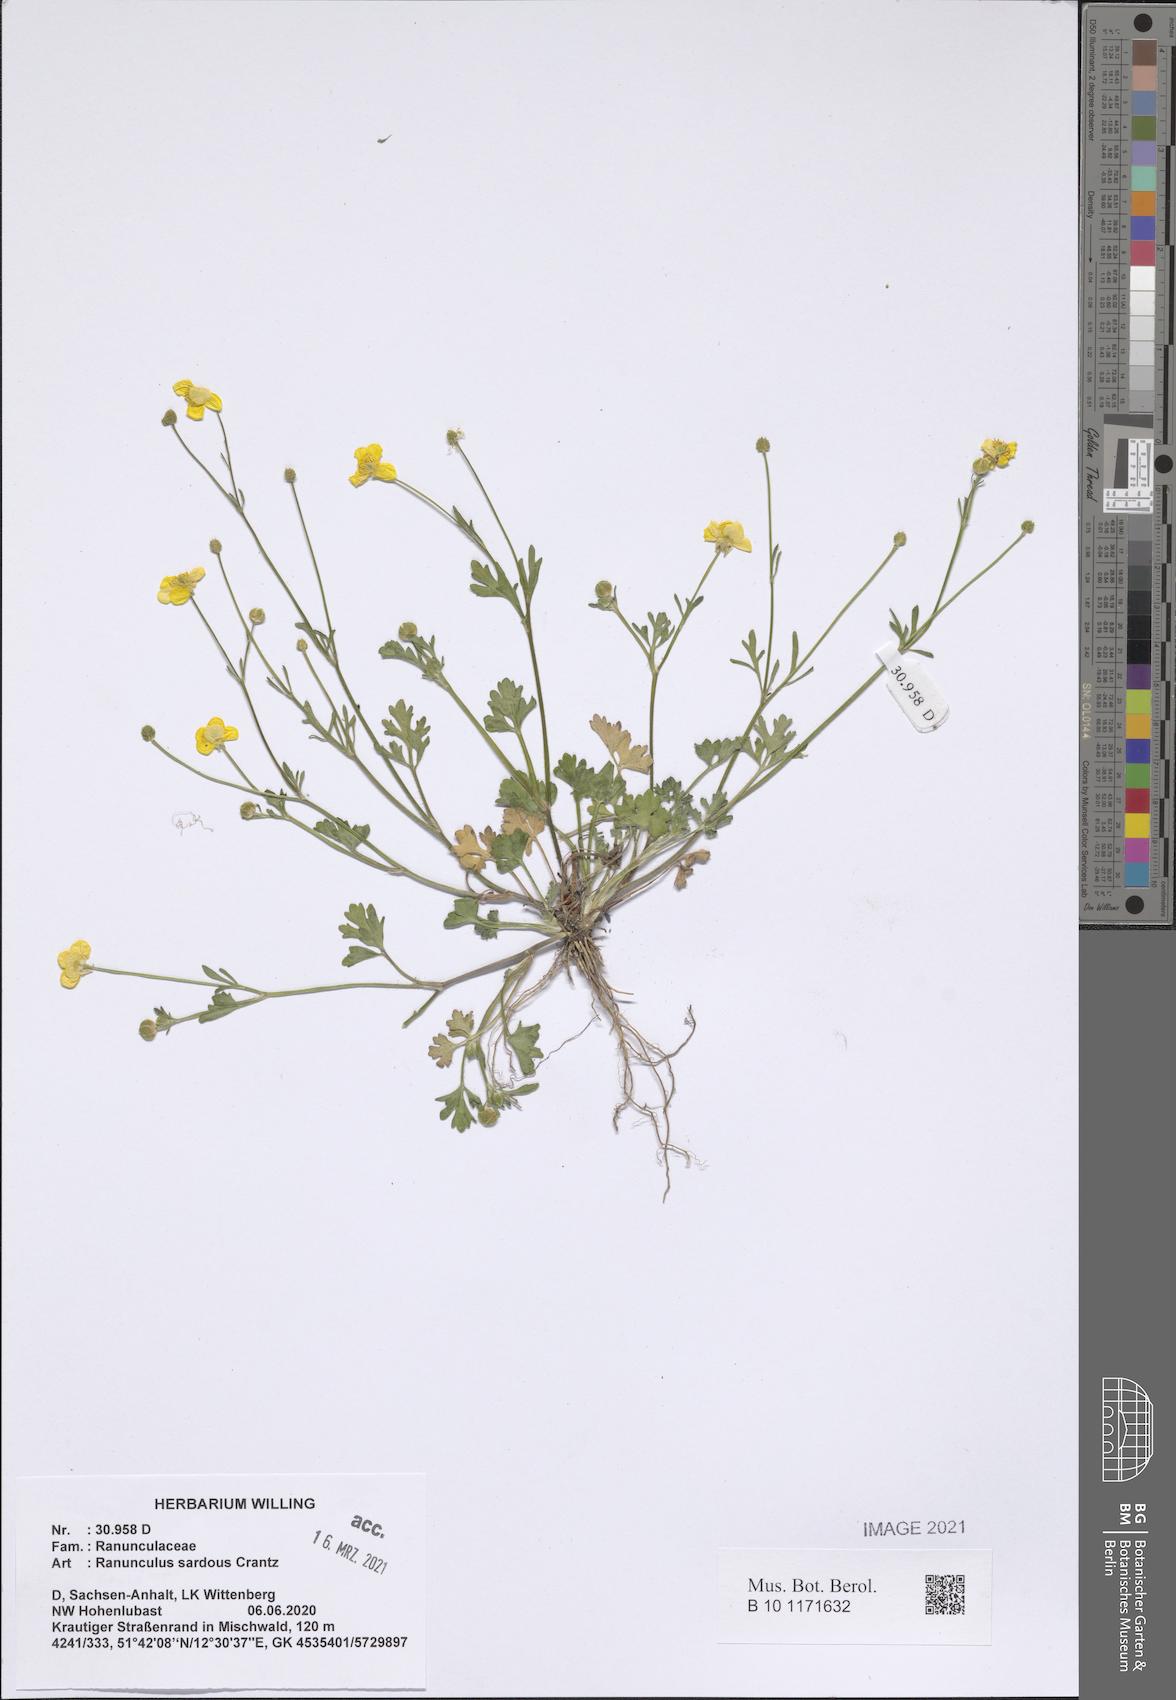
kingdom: Plantae
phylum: Tracheophyta
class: Magnoliopsida
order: Ranunculales
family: Ranunculaceae
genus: Ranunculus
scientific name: Ranunculus sardous
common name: Hairy buttercup
